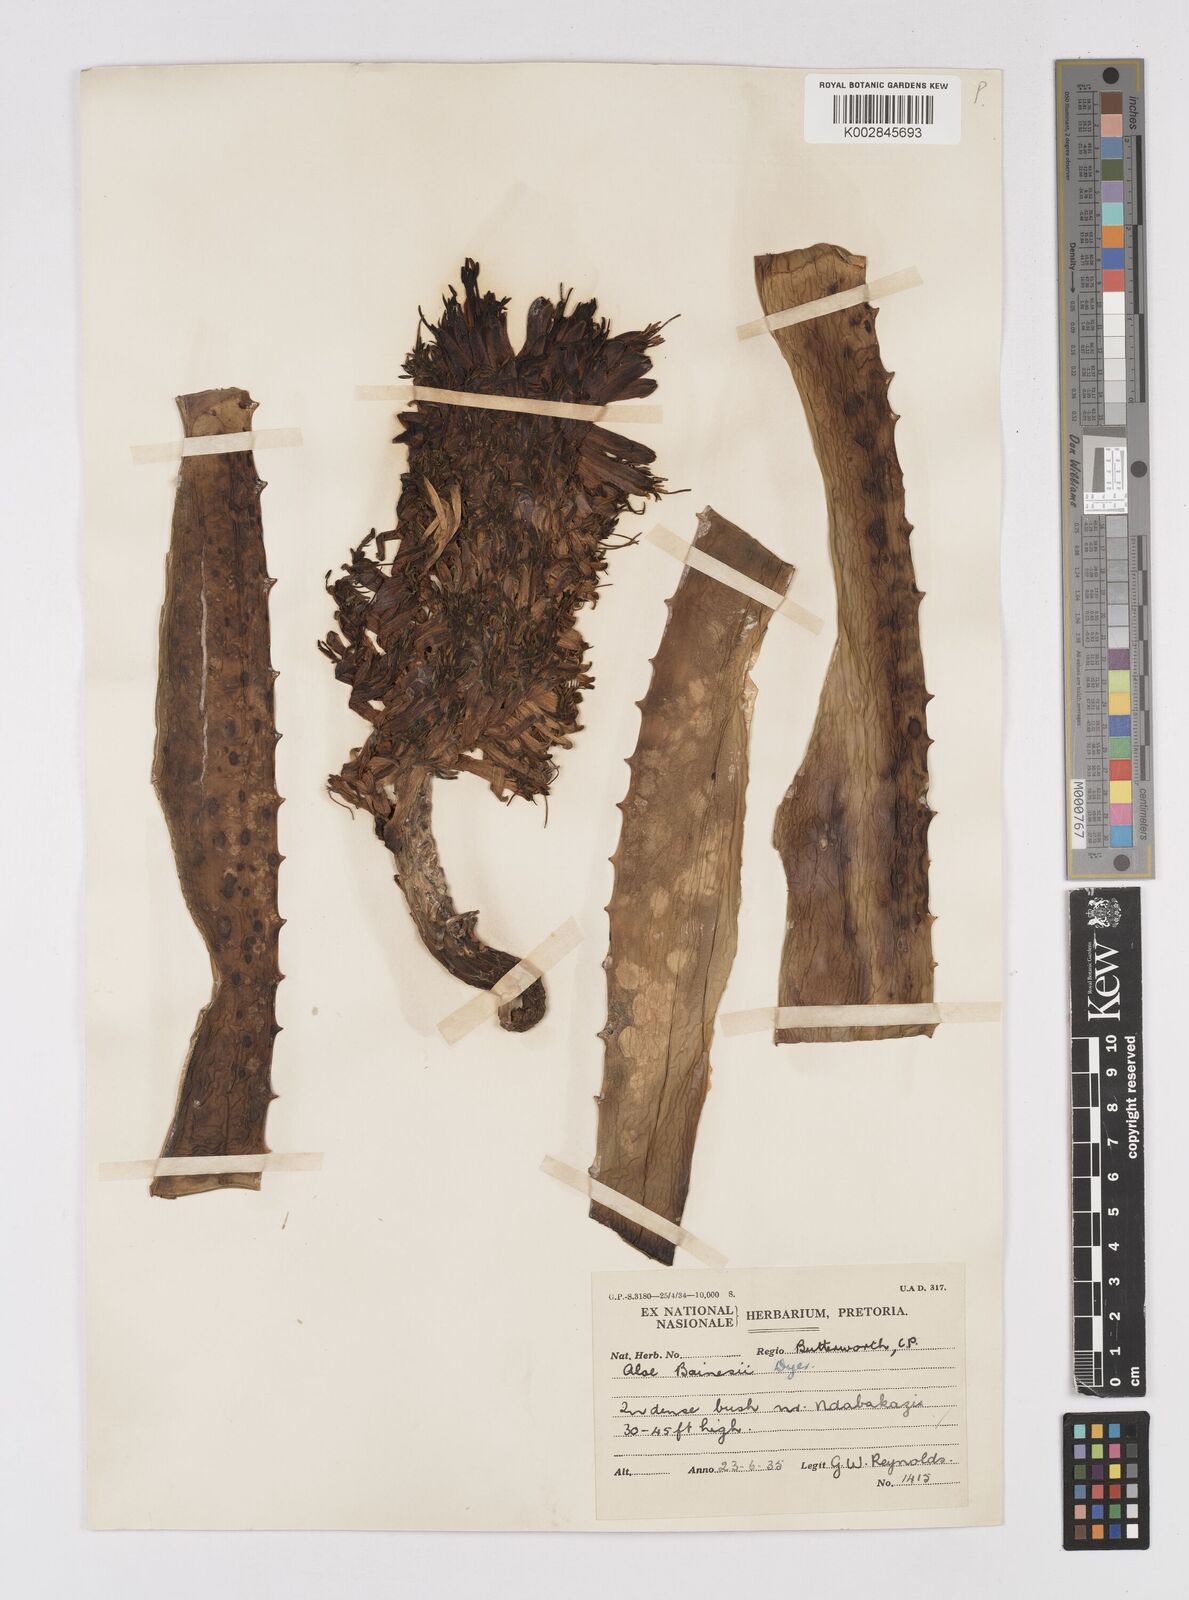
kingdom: Plantae
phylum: Tracheophyta
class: Liliopsida
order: Asparagales
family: Asphodelaceae
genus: Aloidendron
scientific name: Aloidendron barberae
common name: Tree aloe
